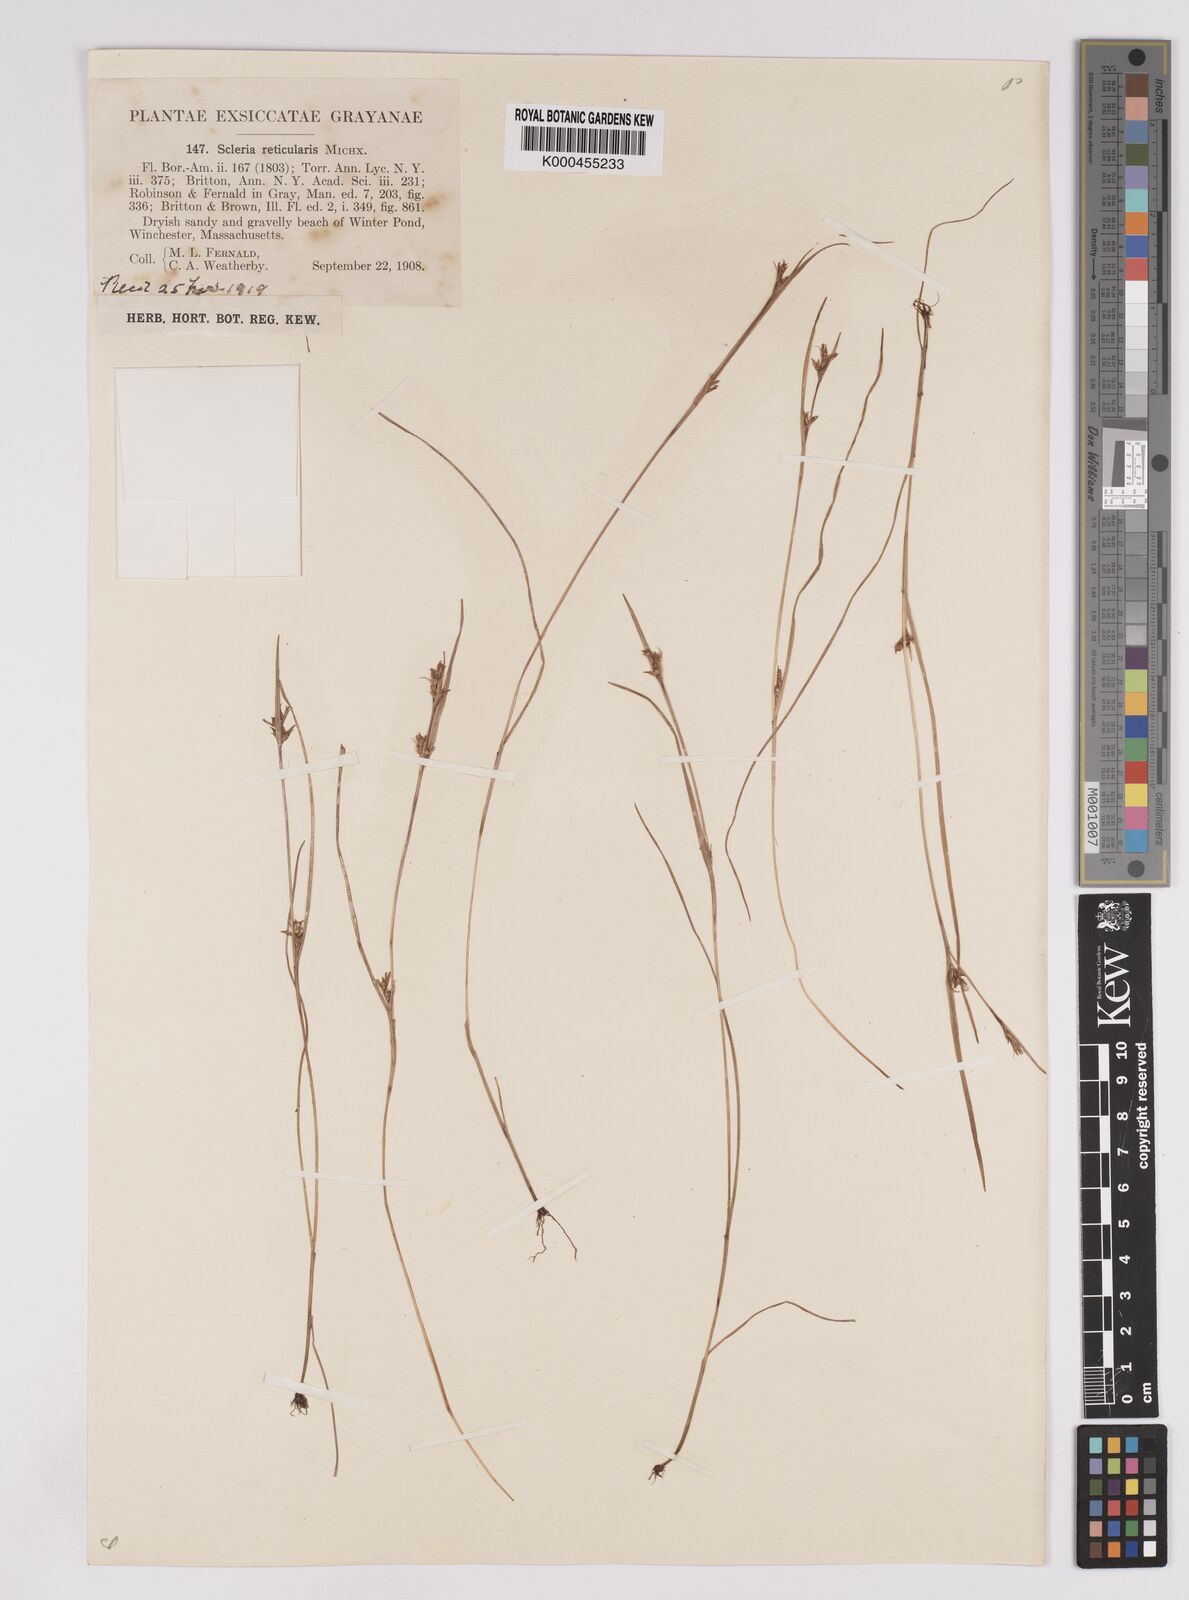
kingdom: Plantae
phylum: Tracheophyta
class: Liliopsida
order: Poales
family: Cyperaceae
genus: Scleria
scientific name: Scleria
